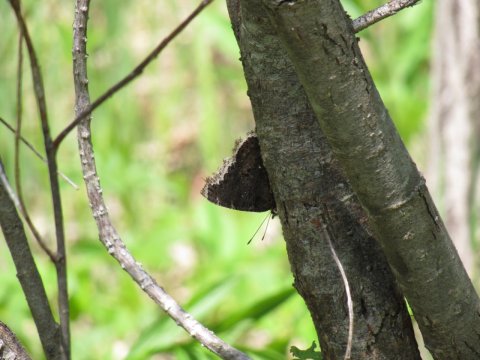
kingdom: Animalia
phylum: Arthropoda
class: Insecta
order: Lepidoptera
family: Nymphalidae
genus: Nymphalis
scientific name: Nymphalis antiopa
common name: Mourning Cloak
